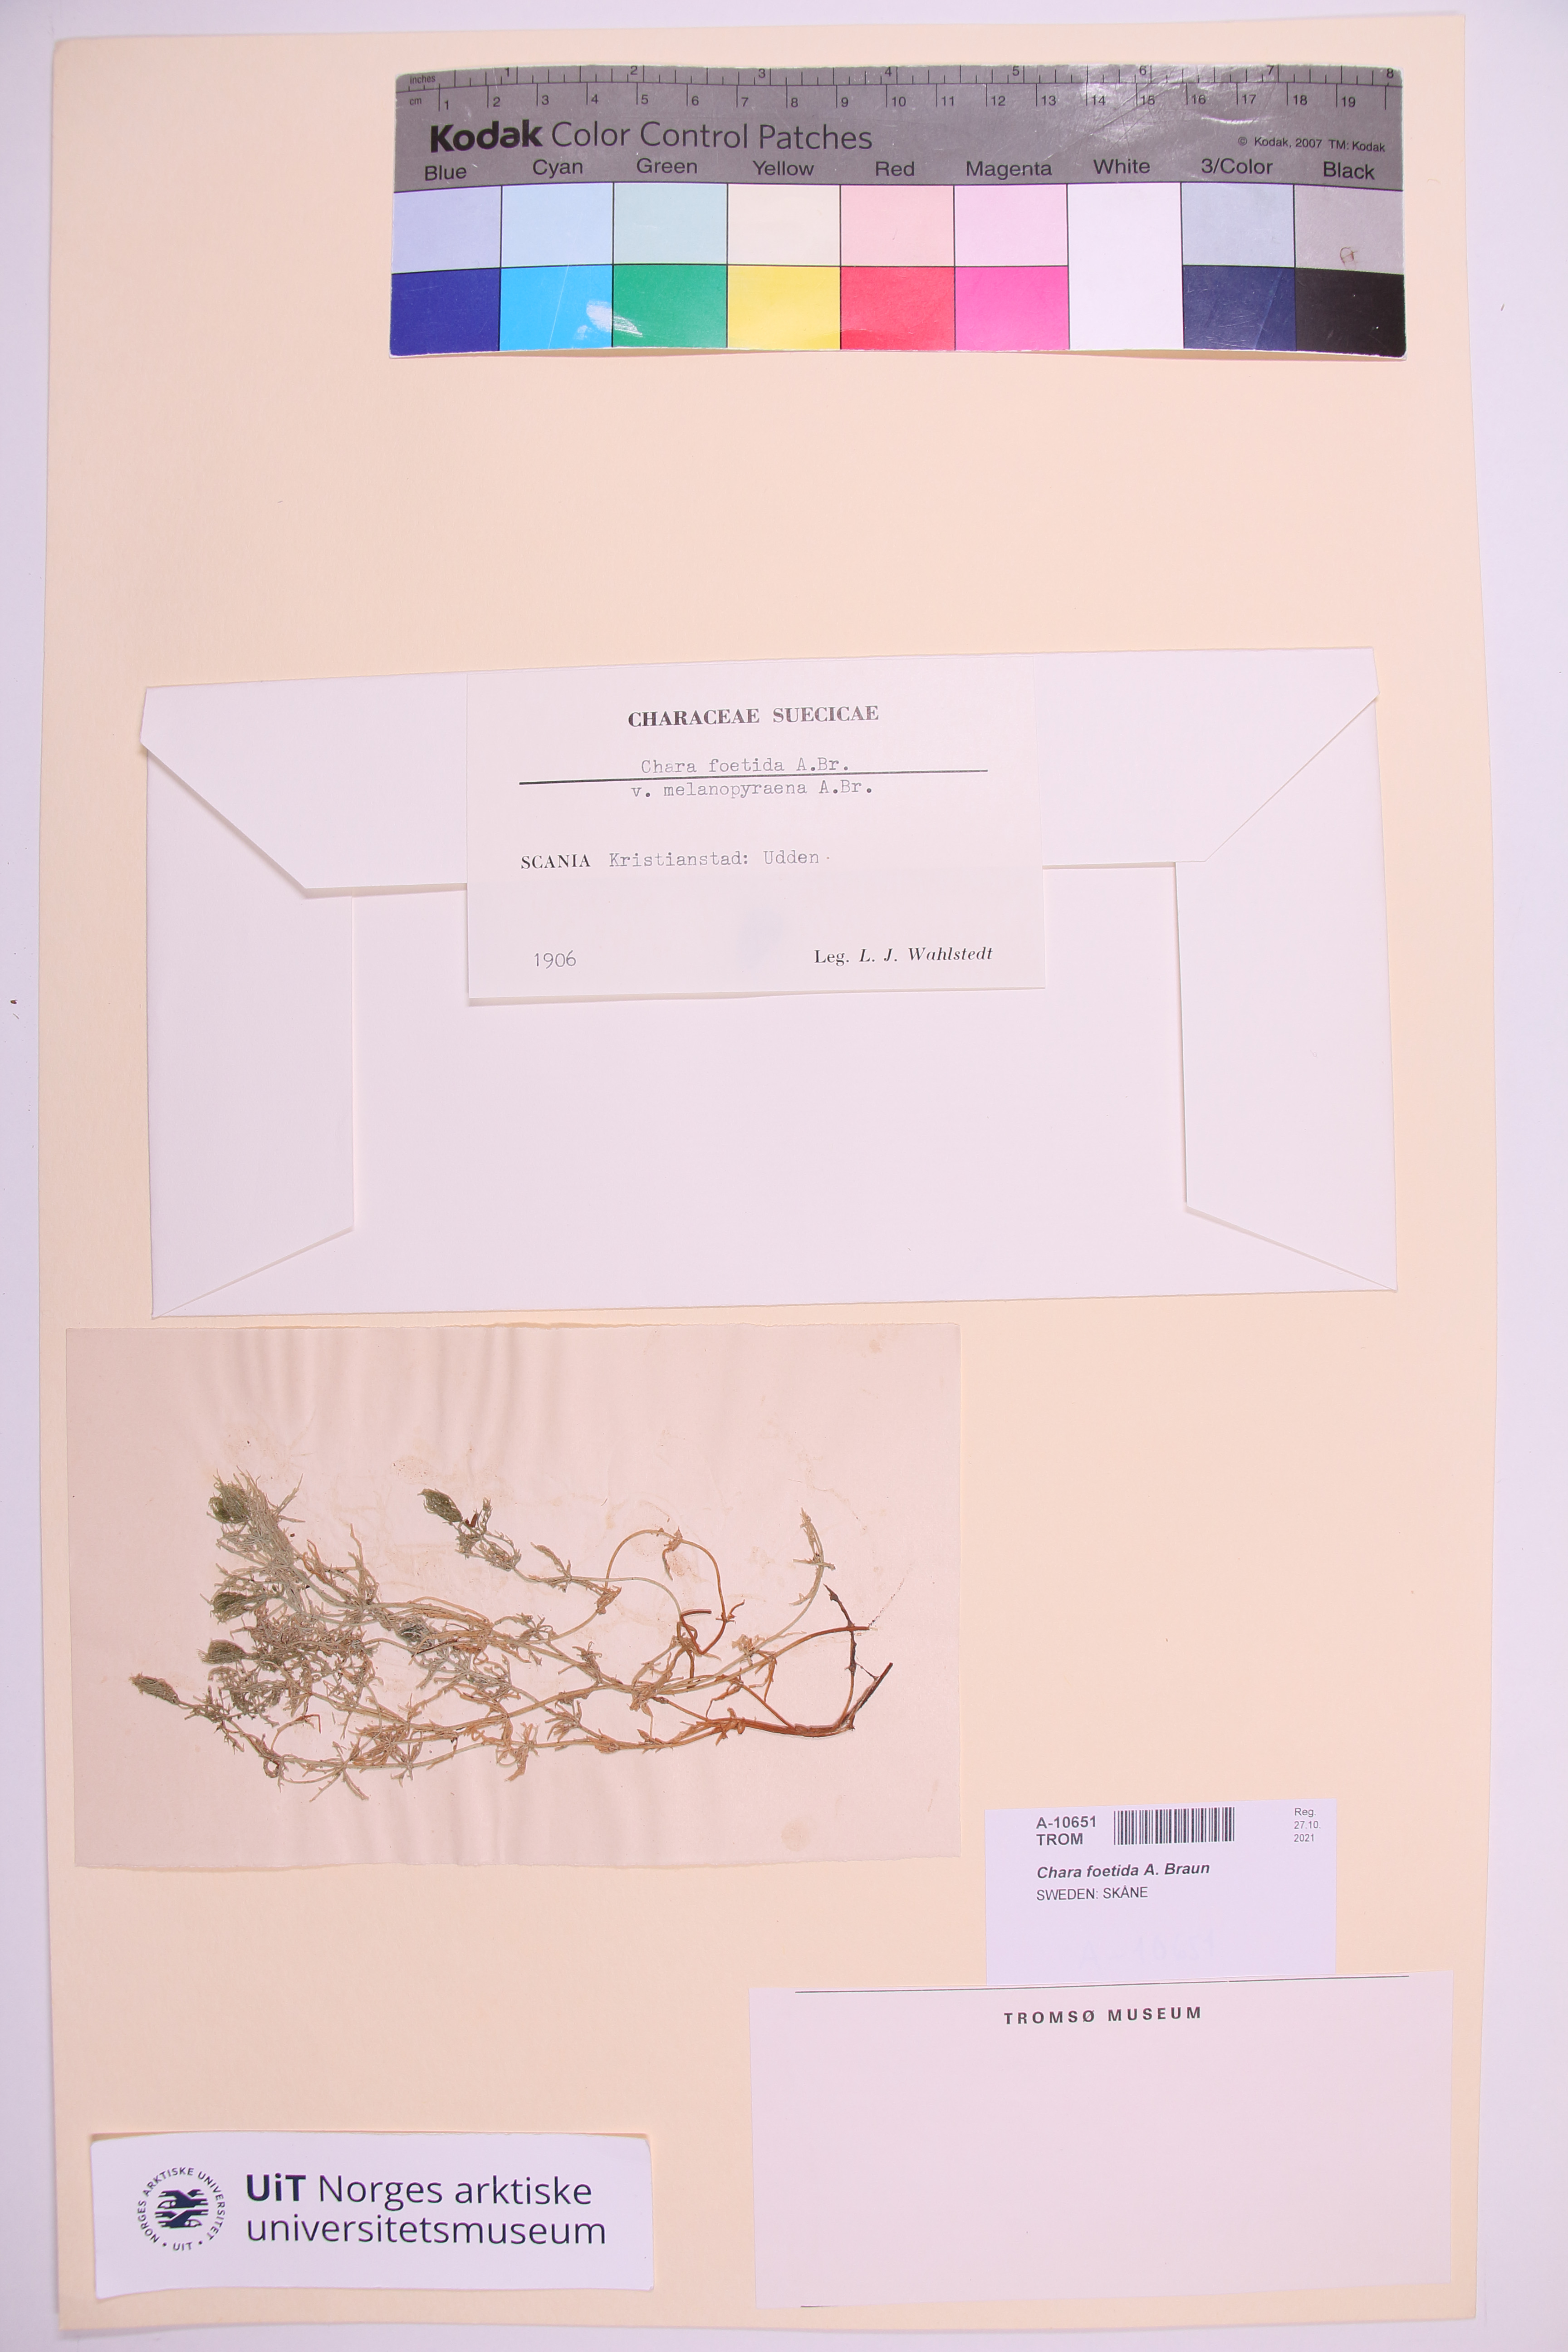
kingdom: Plantae
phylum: Charophyta
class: Charophyceae
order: Charales
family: Characeae
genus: Chara
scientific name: Chara vulgaris
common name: Common stonewort
